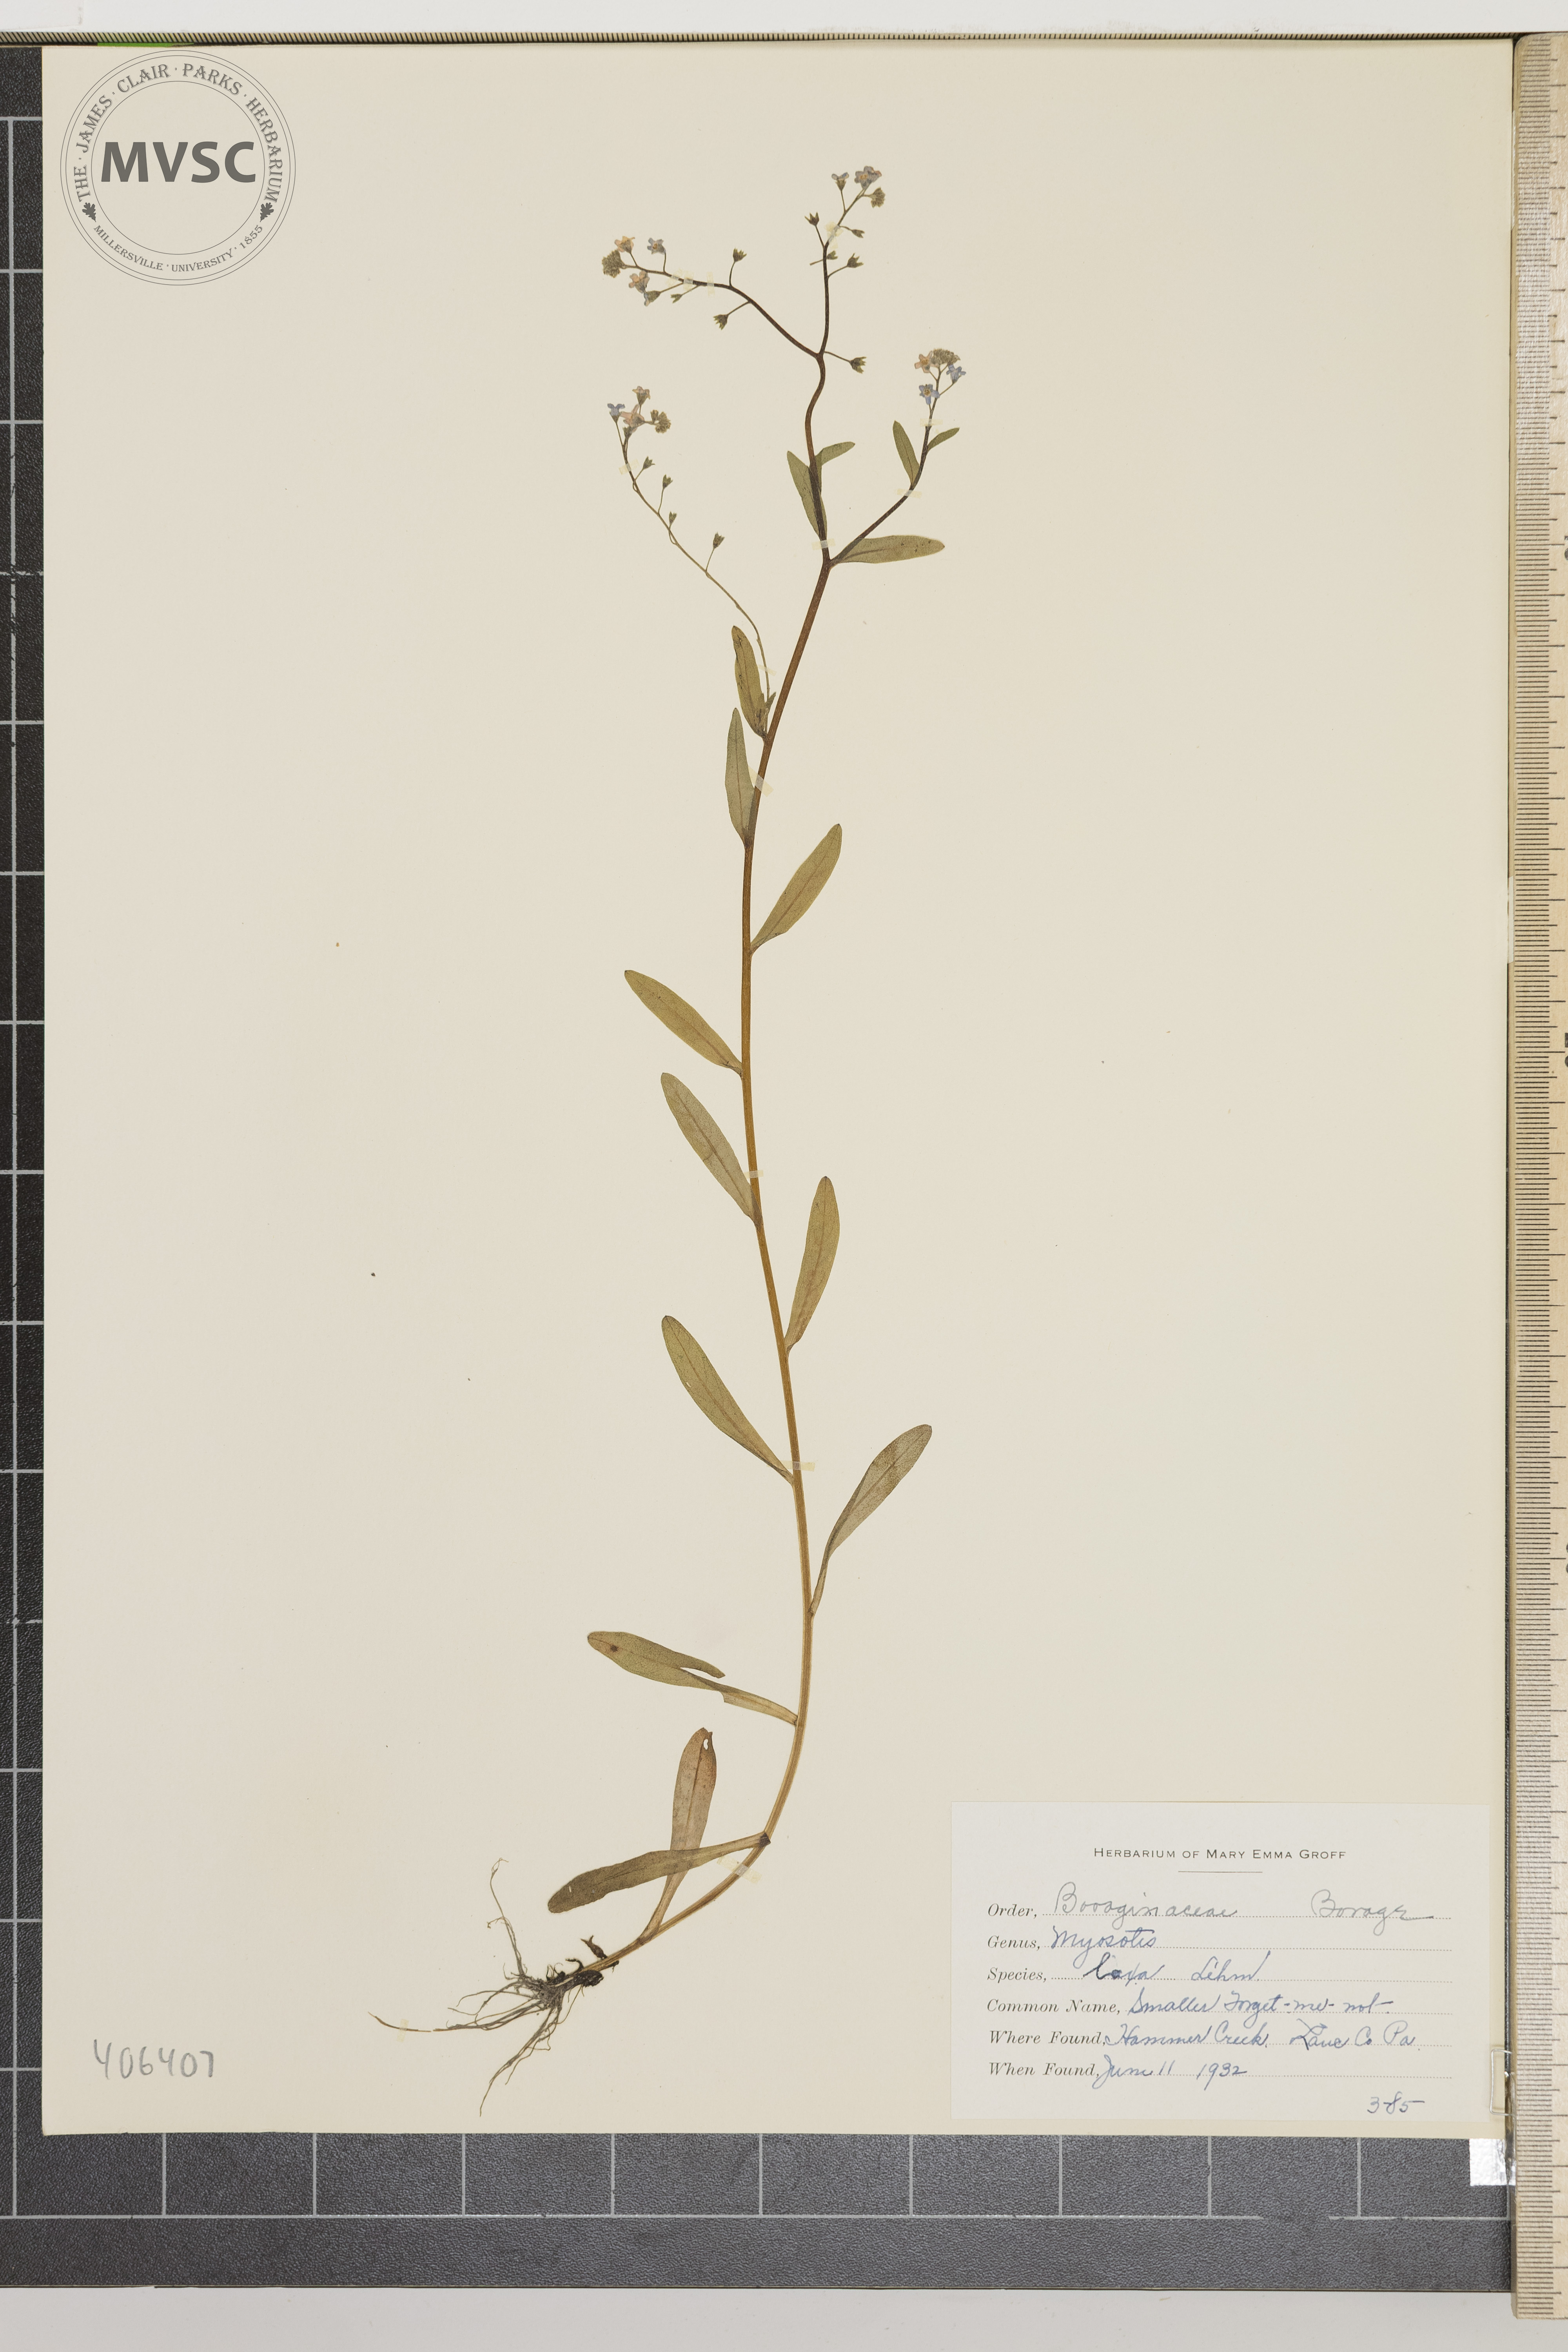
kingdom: Plantae
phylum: Tracheophyta
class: Magnoliopsida
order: Boraginales
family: Boraginaceae
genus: Myosotis
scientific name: Myosotis laxa
